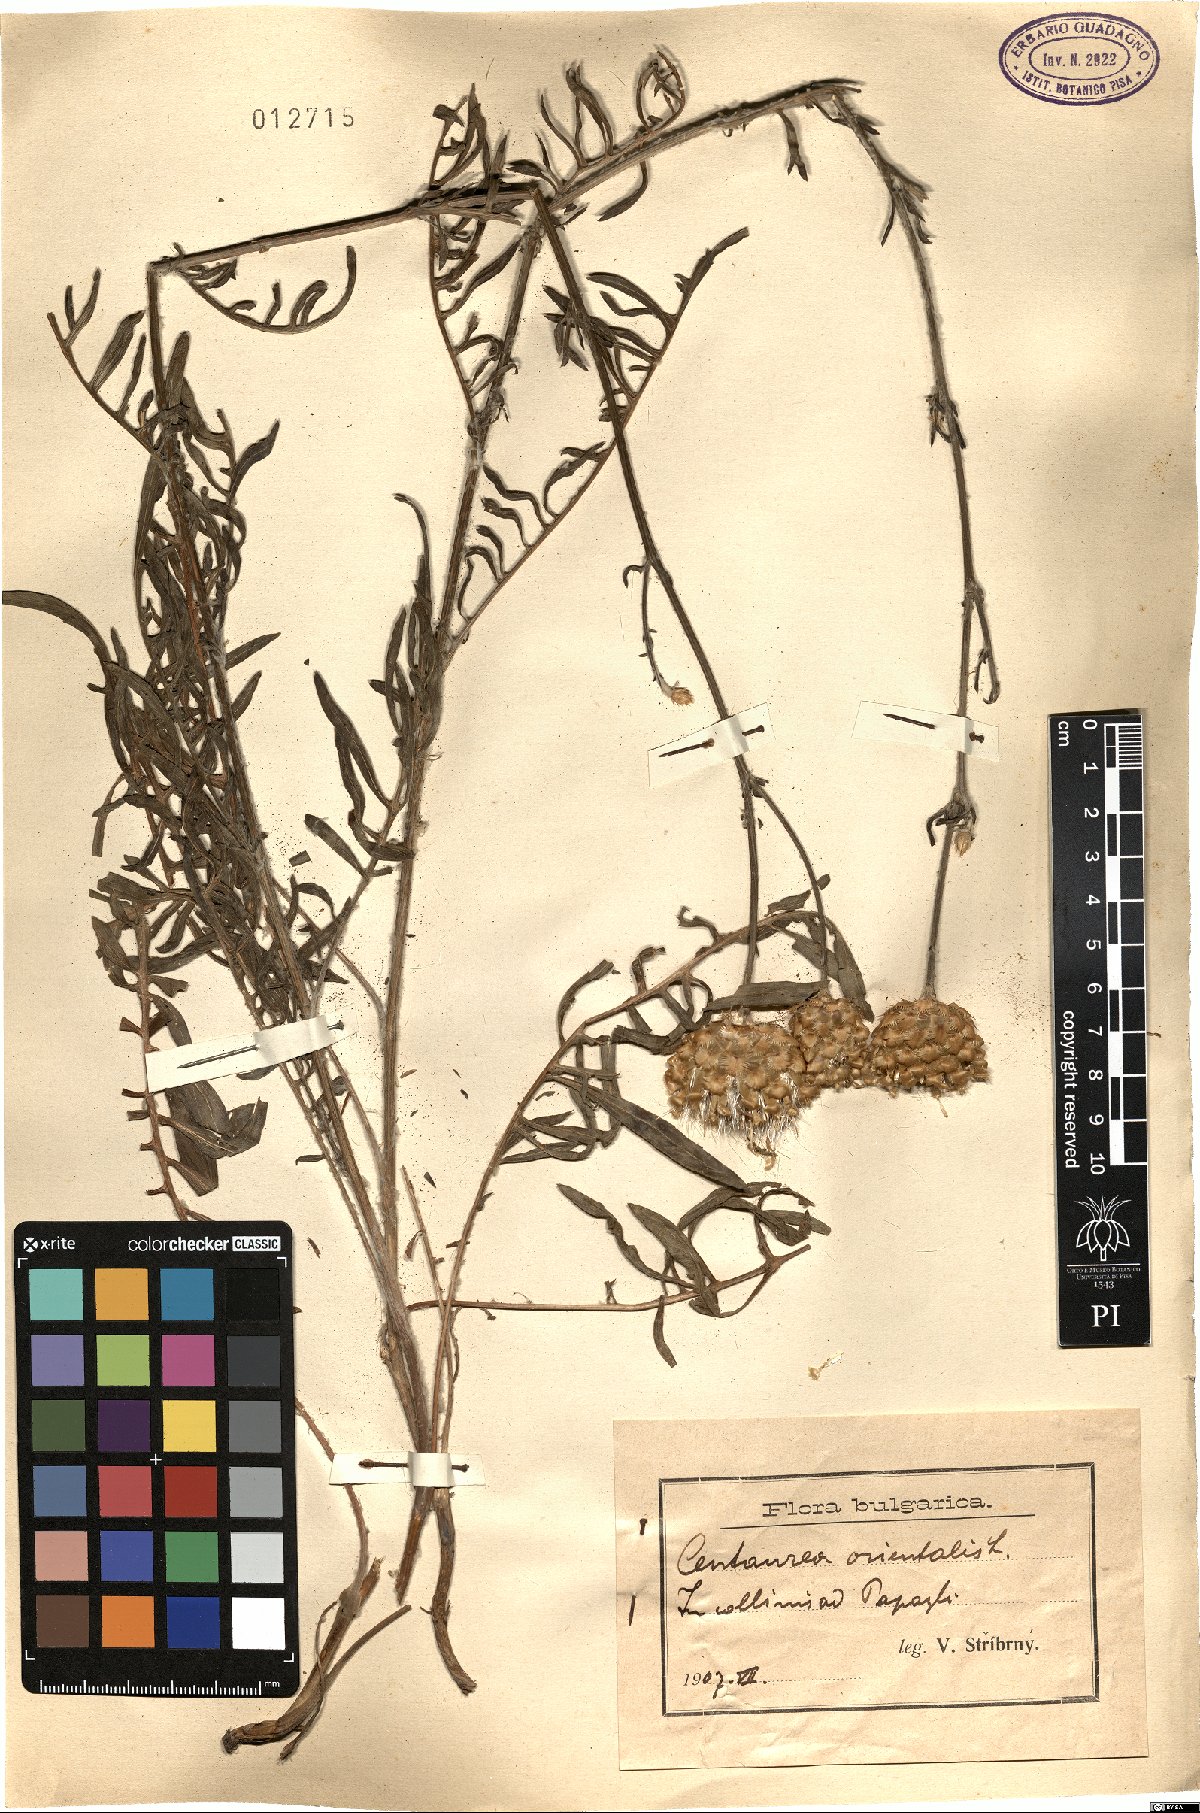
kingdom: Plantae
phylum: Tracheophyta
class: Magnoliopsida
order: Asterales
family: Asteraceae
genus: Centaurea
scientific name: Centaurea orientalis
